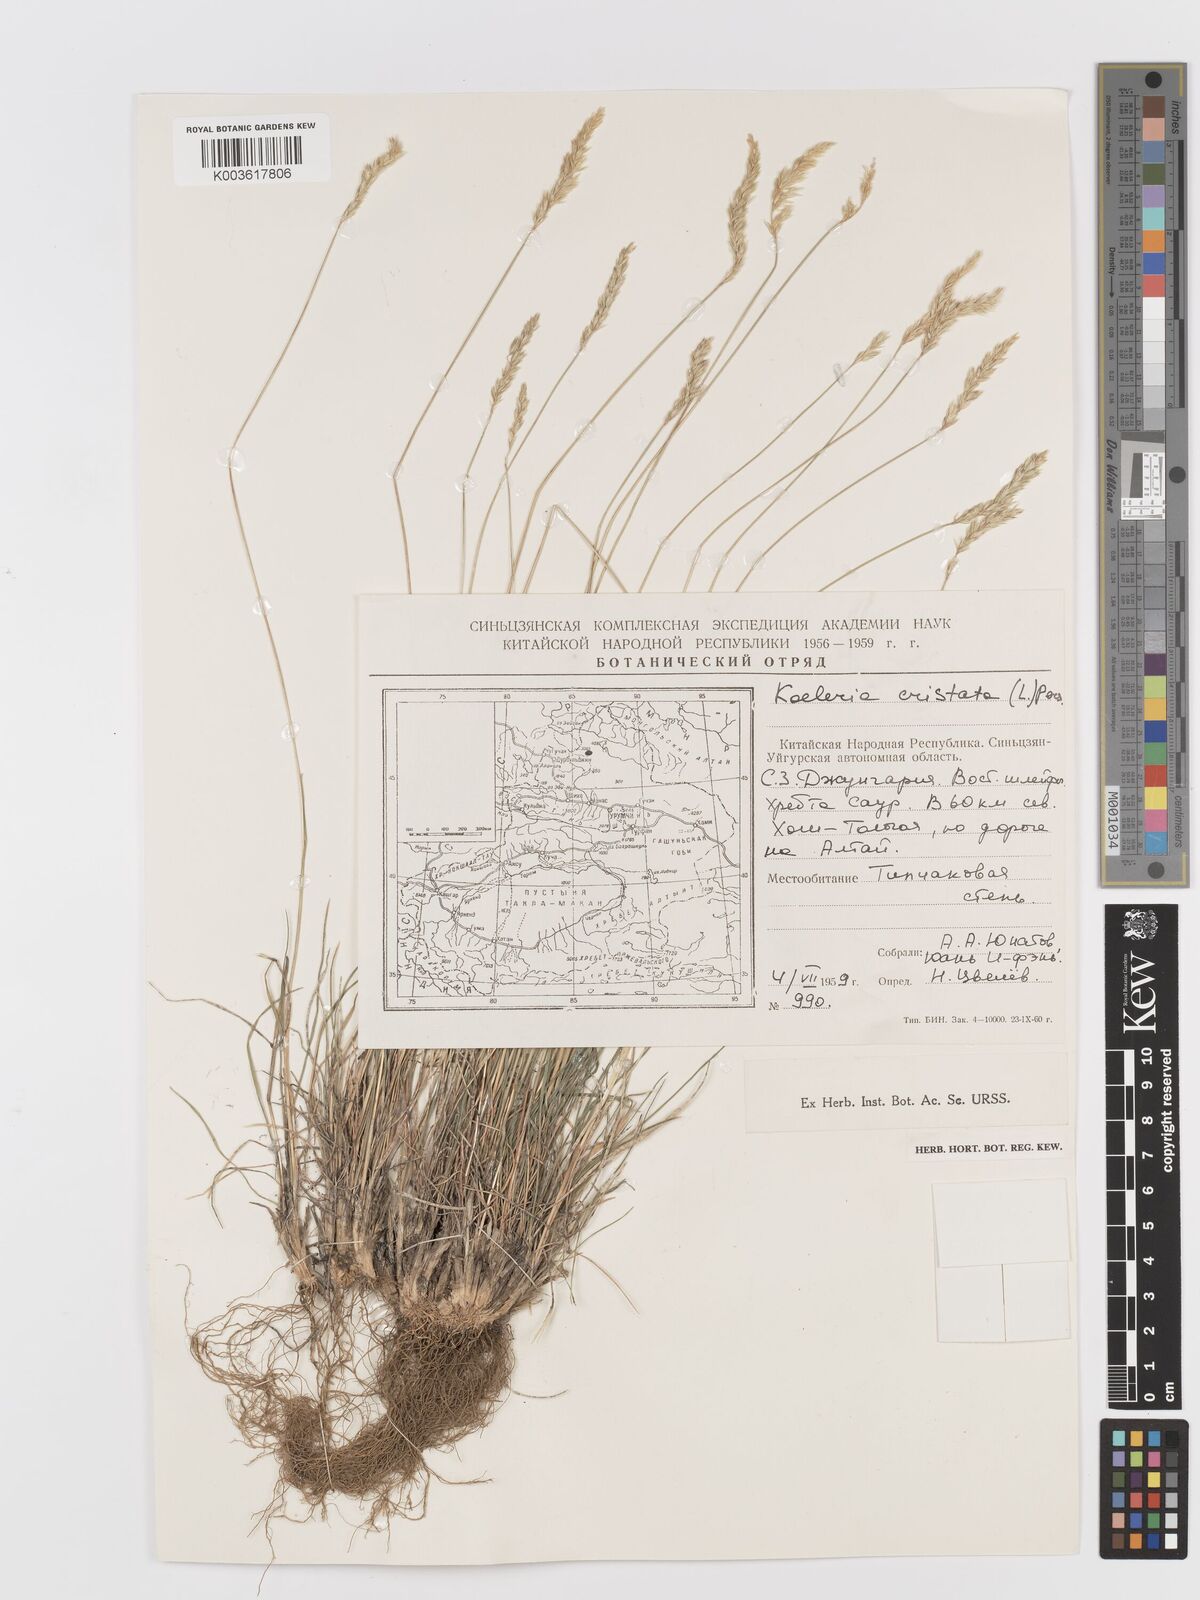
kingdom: Plantae
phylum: Tracheophyta
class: Liliopsida
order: Poales
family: Poaceae
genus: Koeleria
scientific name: Koeleria macrantha
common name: Crested hair-grass
